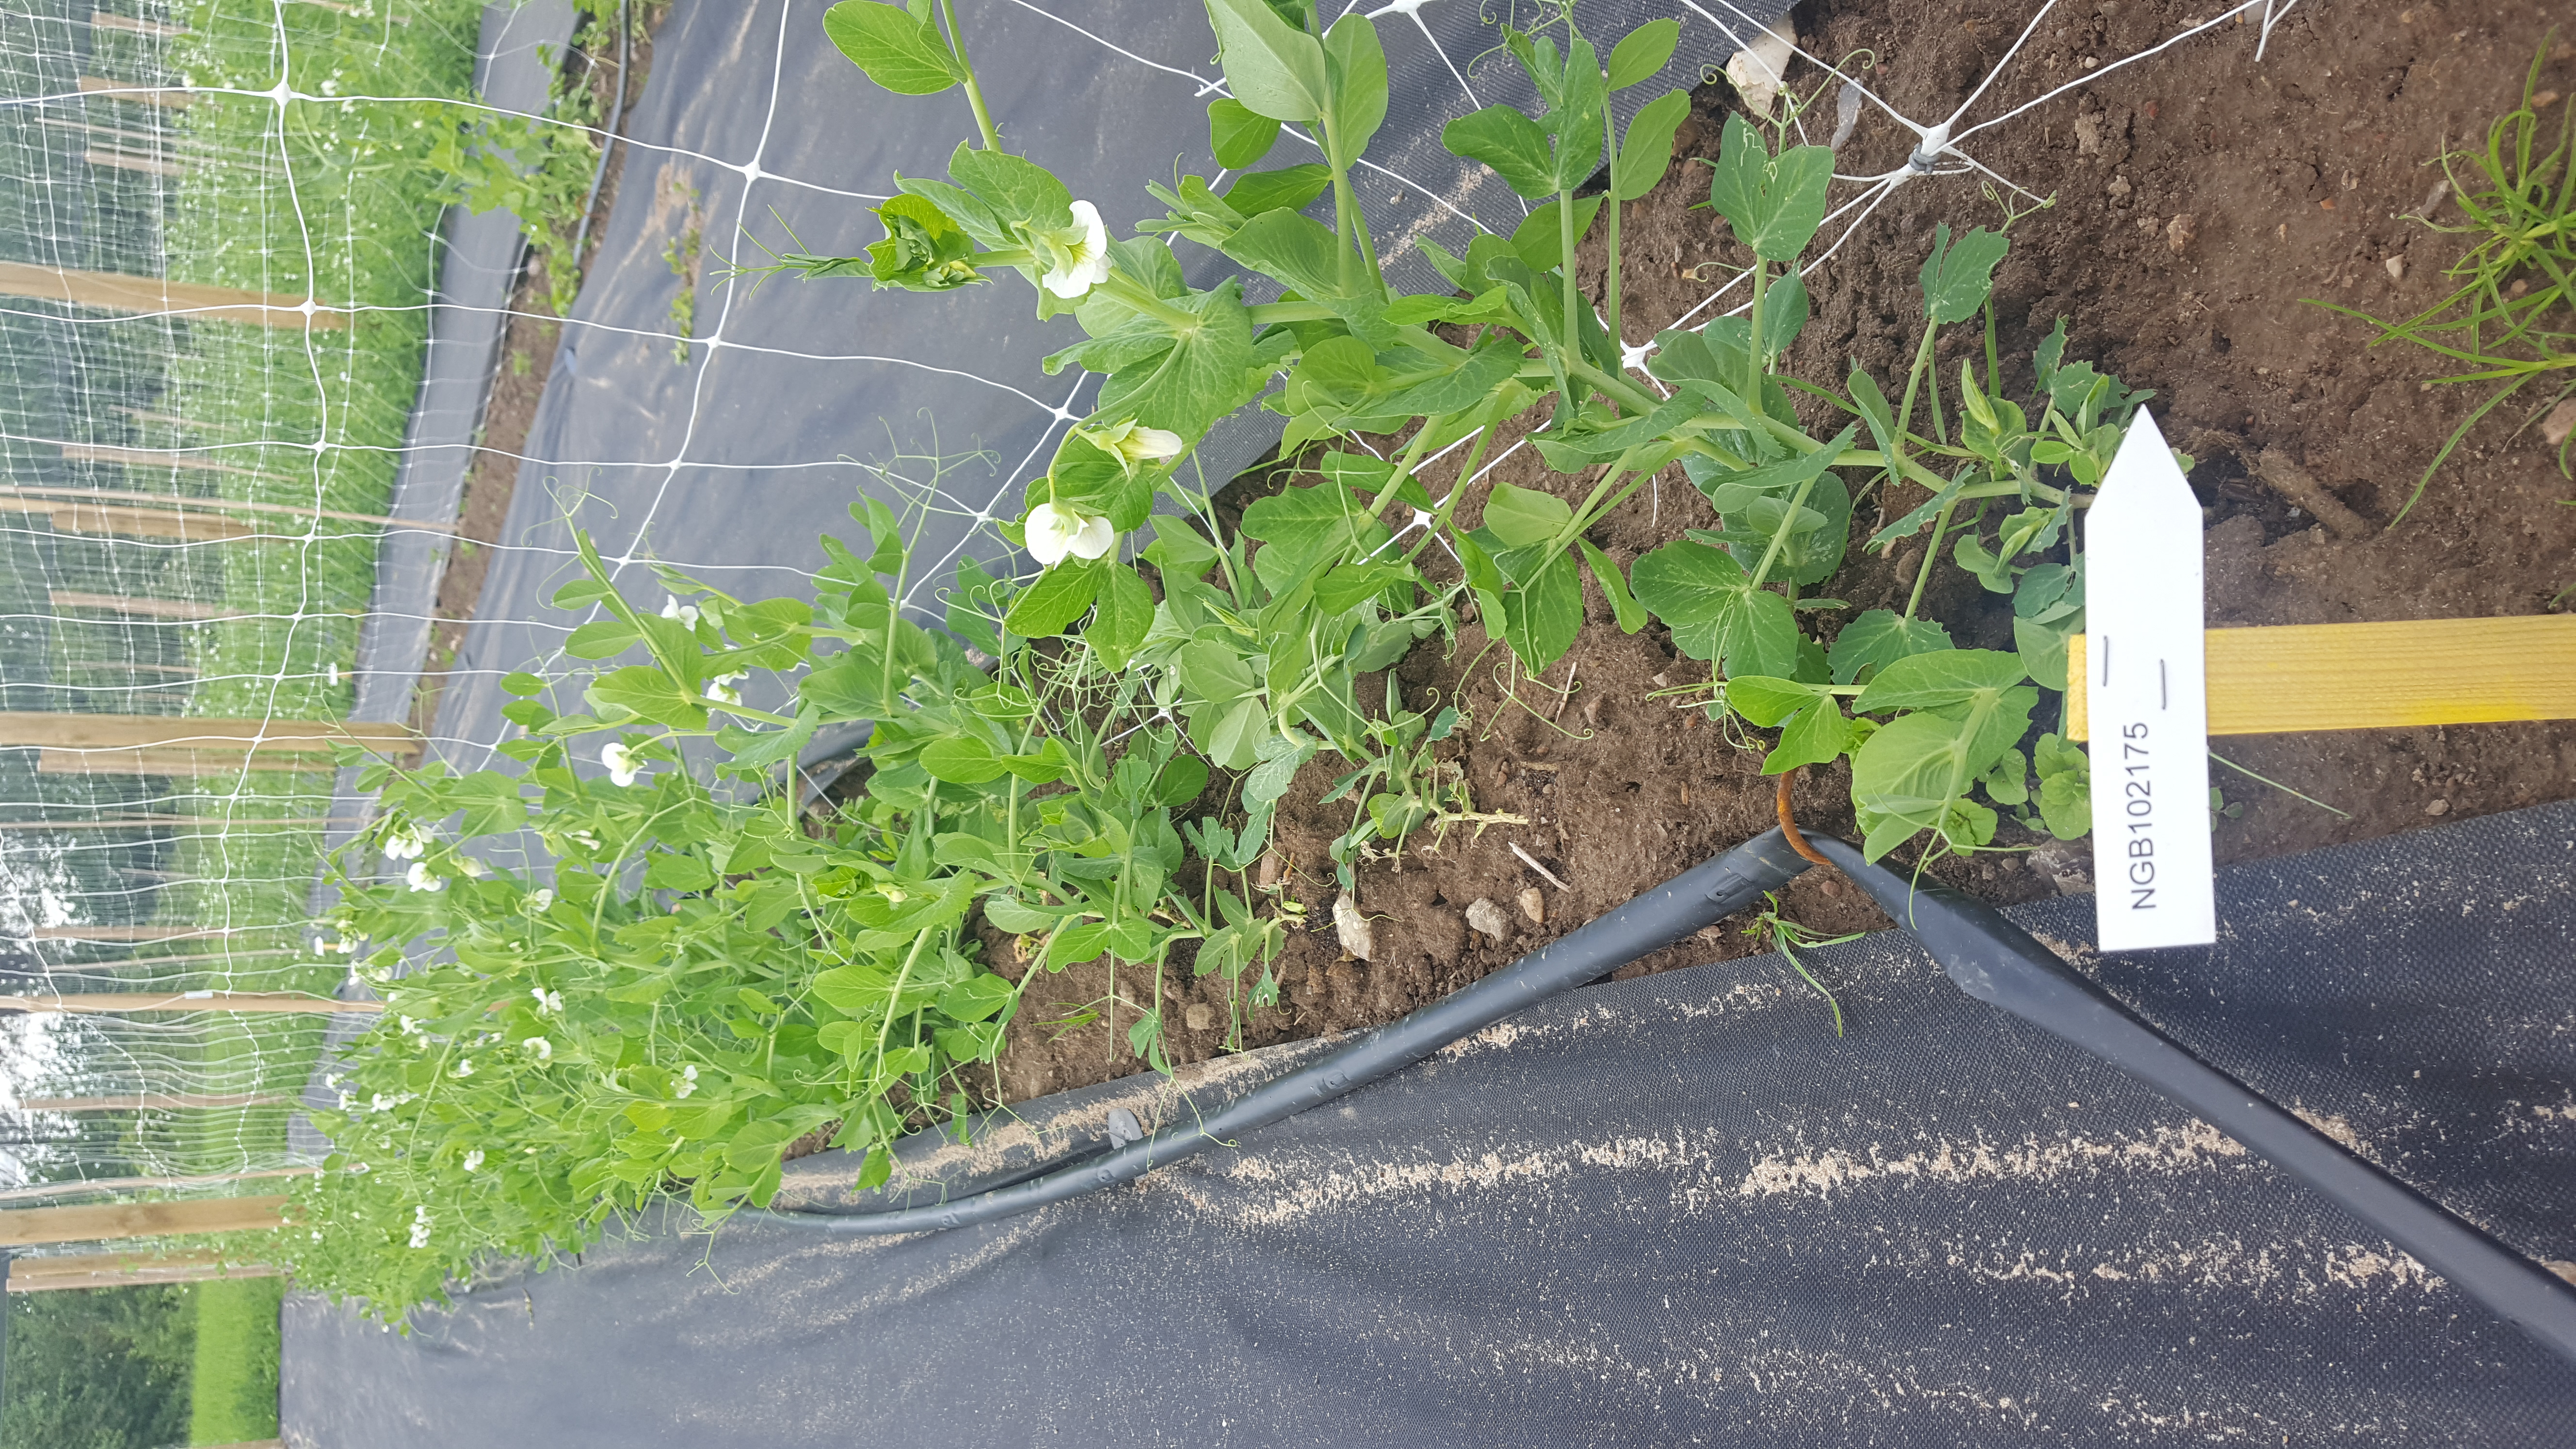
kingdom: Plantae
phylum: Tracheophyta
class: Magnoliopsida
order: Fabales
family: Fabaceae
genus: Lathyrus
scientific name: Lathyrus oleraceus
